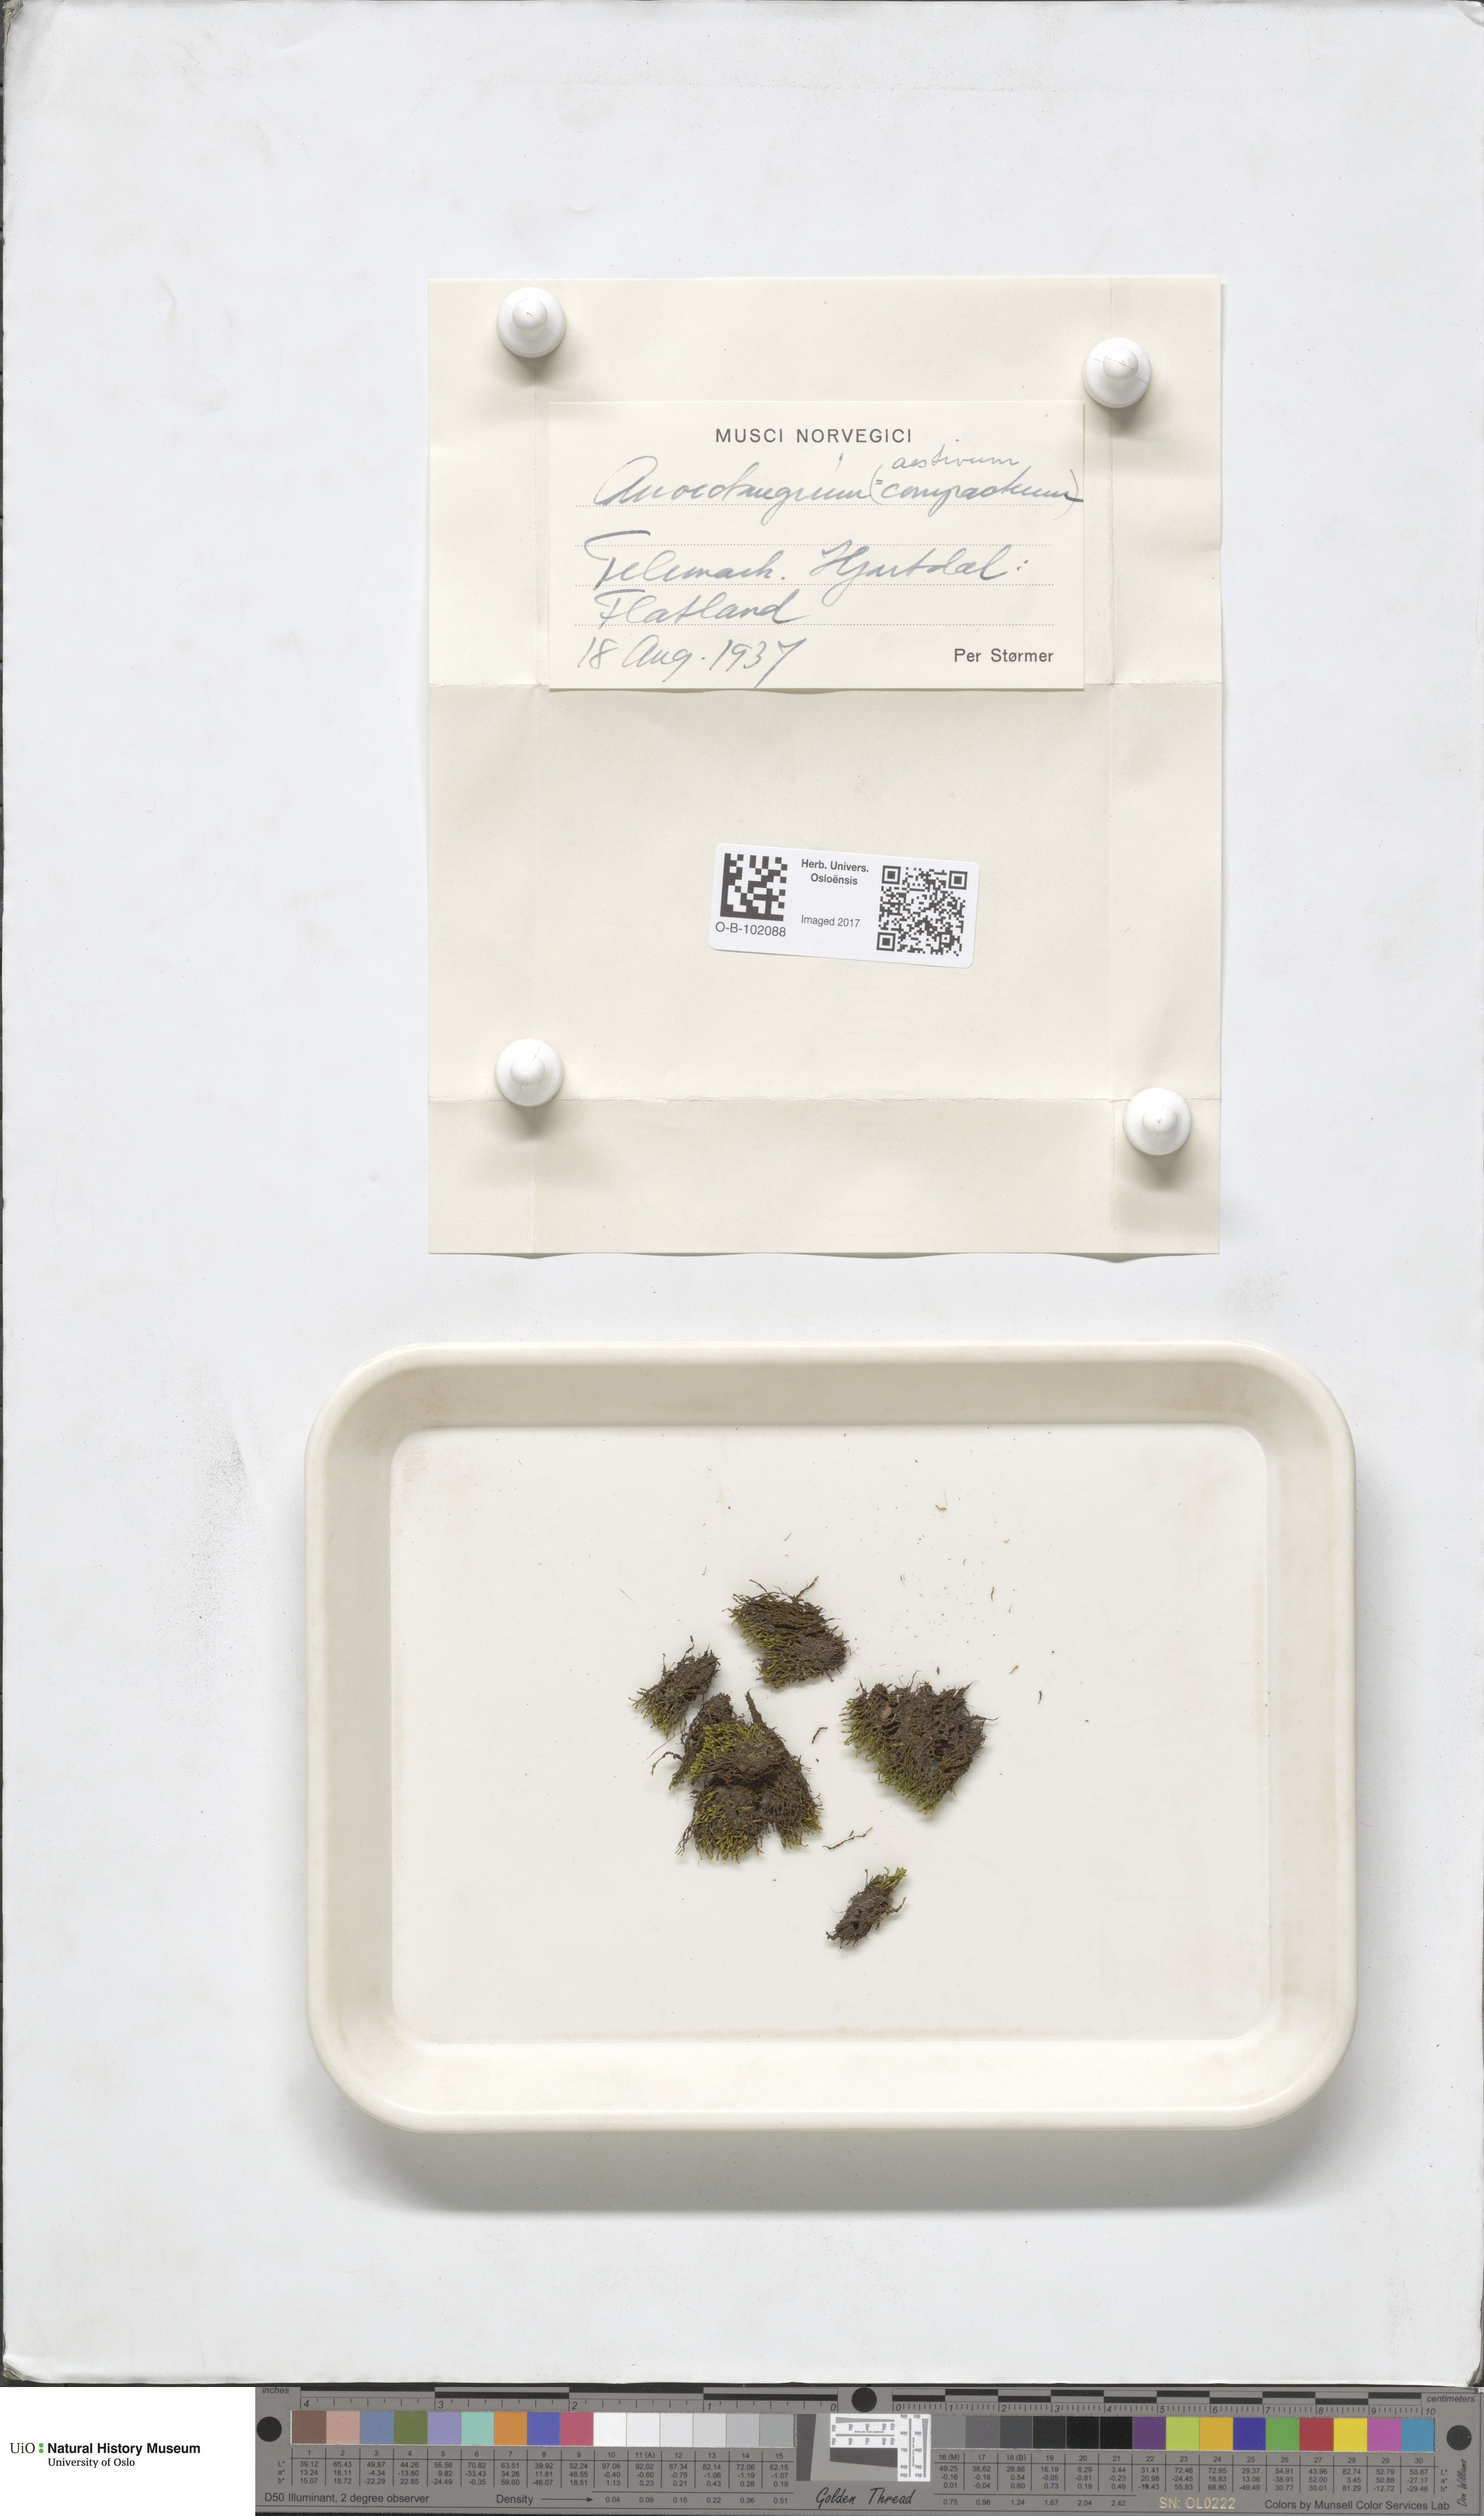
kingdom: Plantae
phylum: Bryophyta
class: Bryopsida
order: Pottiales
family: Pottiaceae
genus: Anoectangium
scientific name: Anoectangium aestivum
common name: Summer-moss
